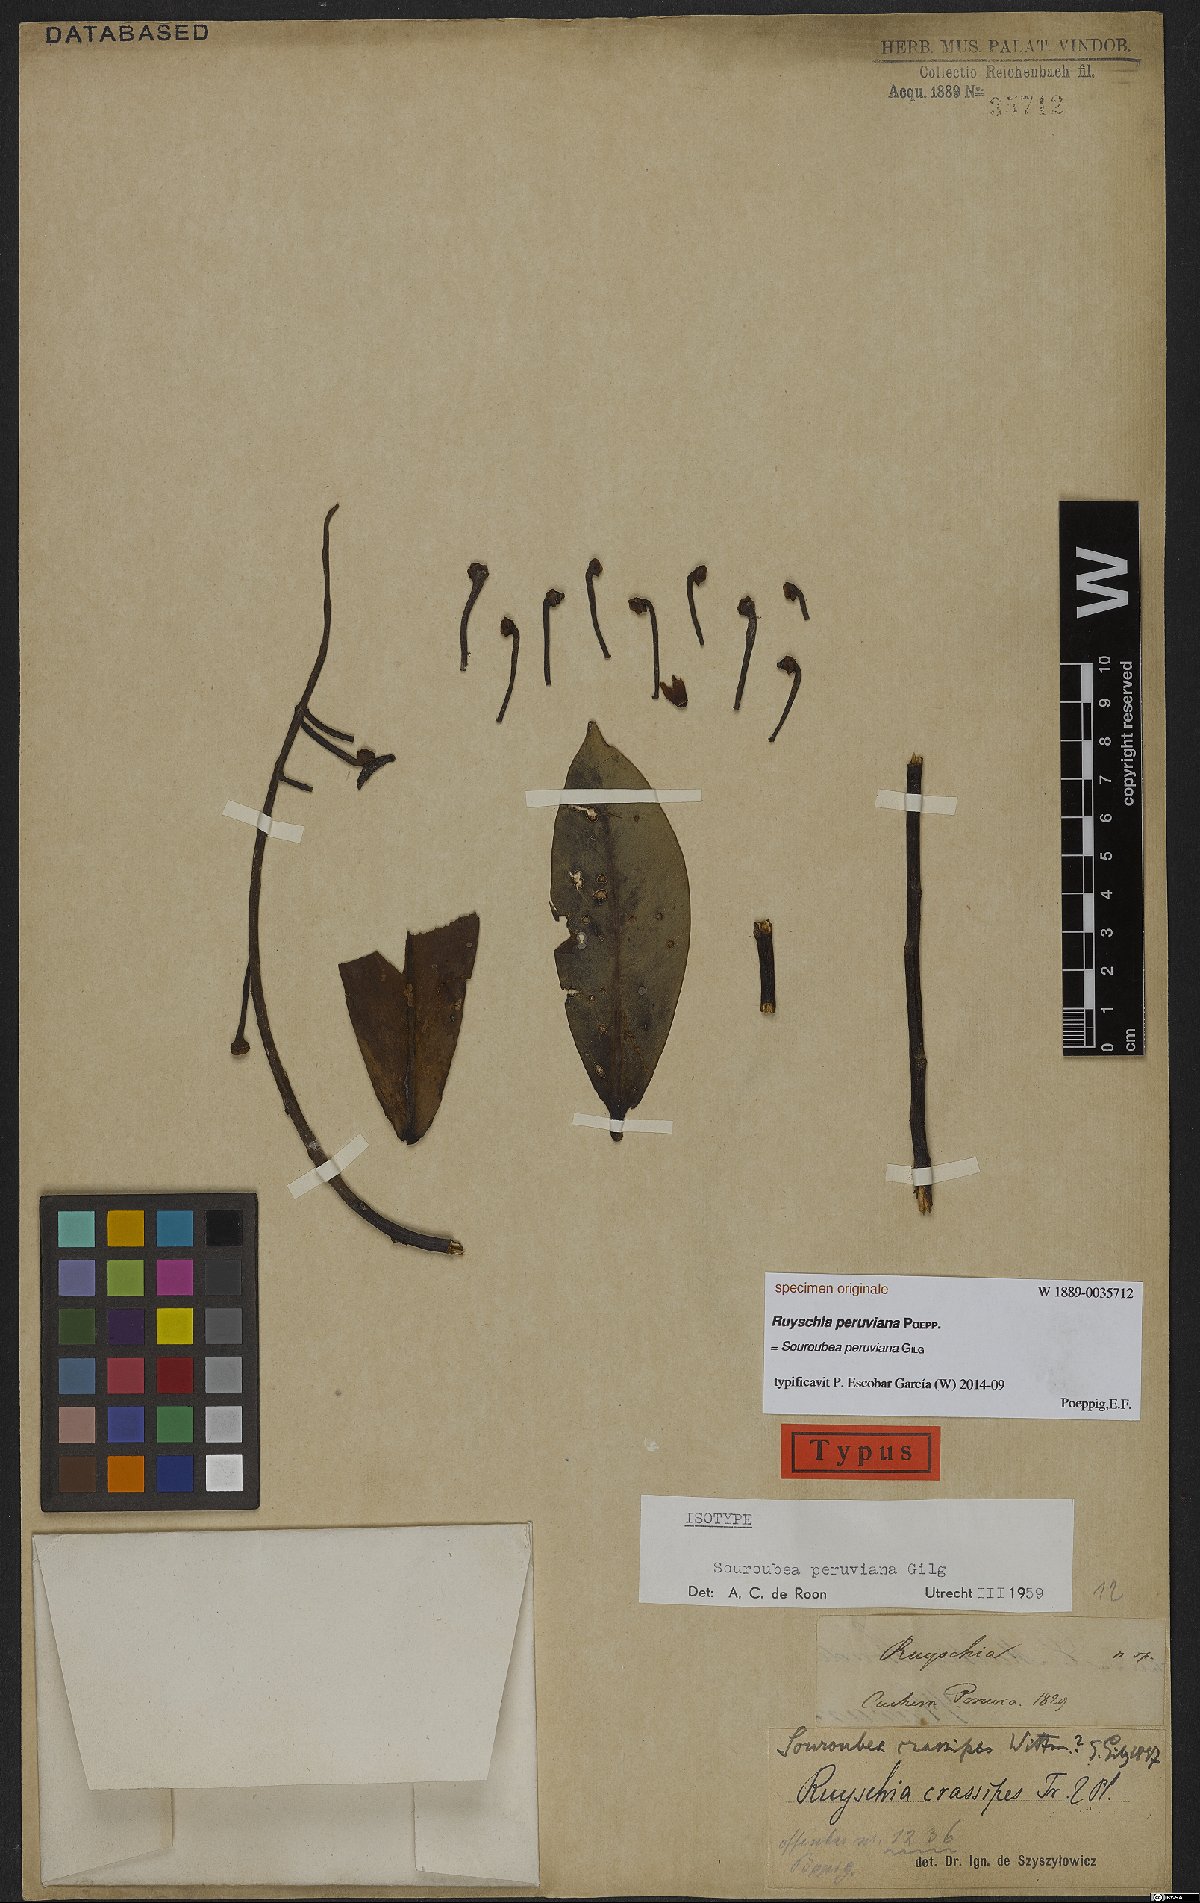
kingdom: Plantae
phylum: Tracheophyta
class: Magnoliopsida
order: Ericales
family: Marcgraviaceae
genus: Souroubea
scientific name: Souroubea peruviana
